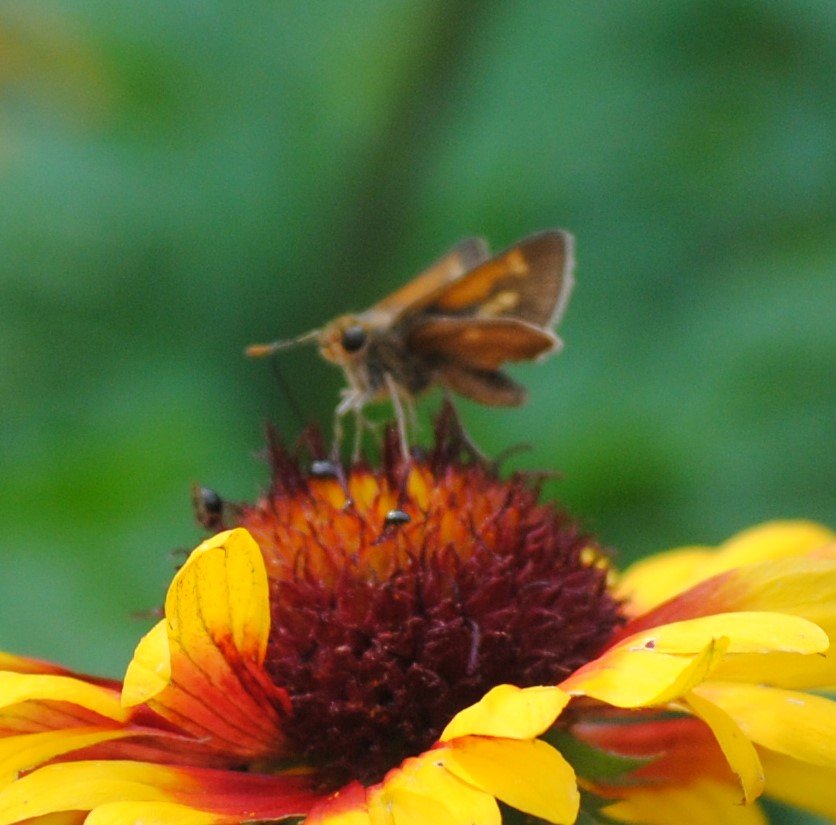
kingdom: Animalia
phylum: Arthropoda
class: Insecta
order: Lepidoptera
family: Hesperiidae
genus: Polites
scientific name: Polites themistocles
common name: Tawny-edged Skipper
